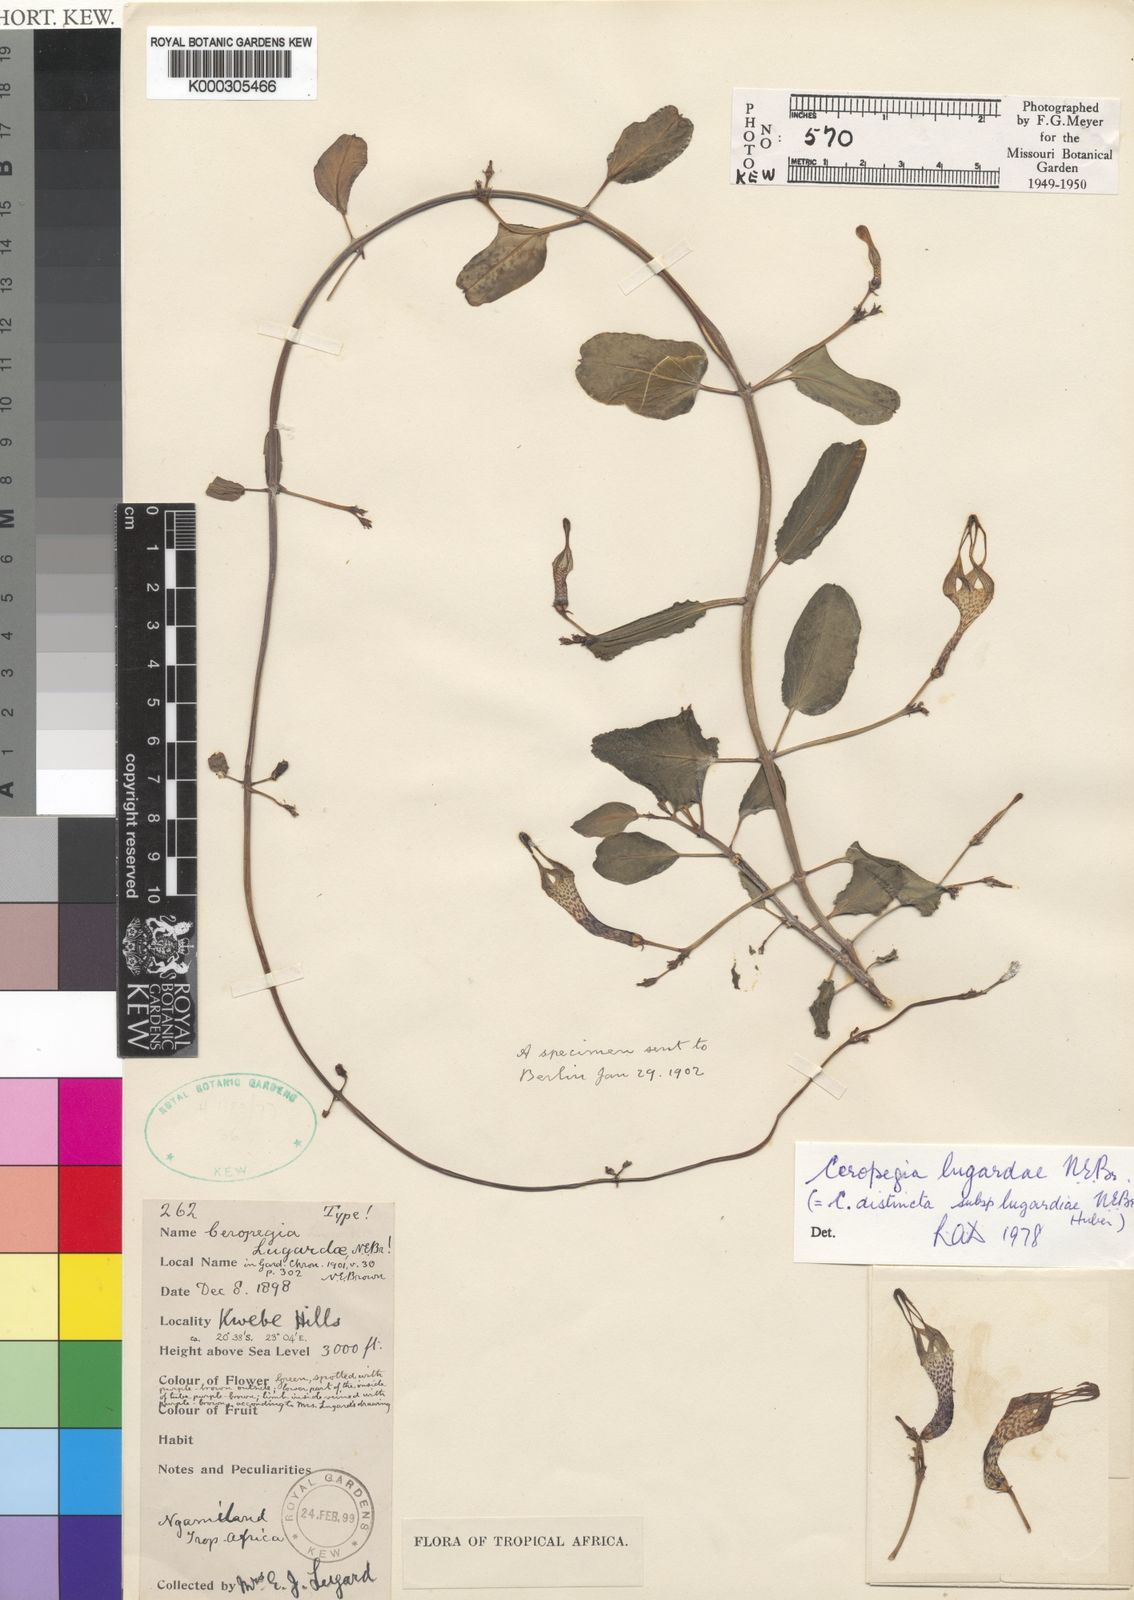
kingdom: Plantae
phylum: Tracheophyta
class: Magnoliopsida
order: Gentianales
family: Apocynaceae
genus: Ceropegia
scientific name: Ceropegia distincta
